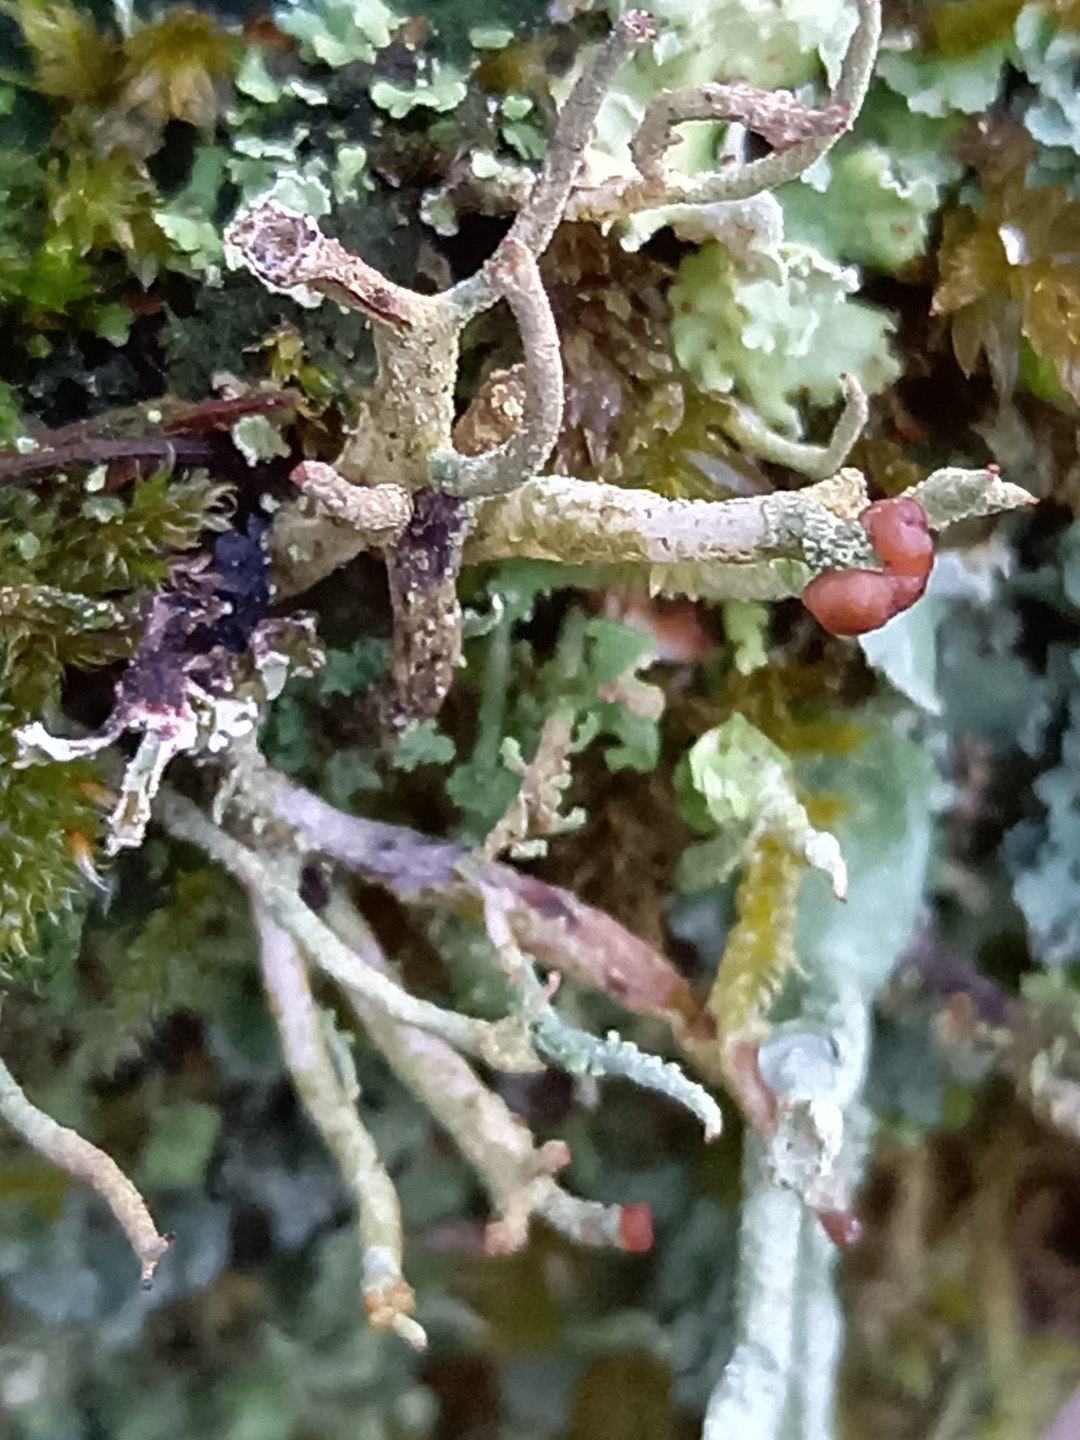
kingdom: Fungi
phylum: Ascomycota
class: Lecanoromycetes
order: Lecanorales
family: Cladoniaceae
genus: Cladonia
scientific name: Cladonia
